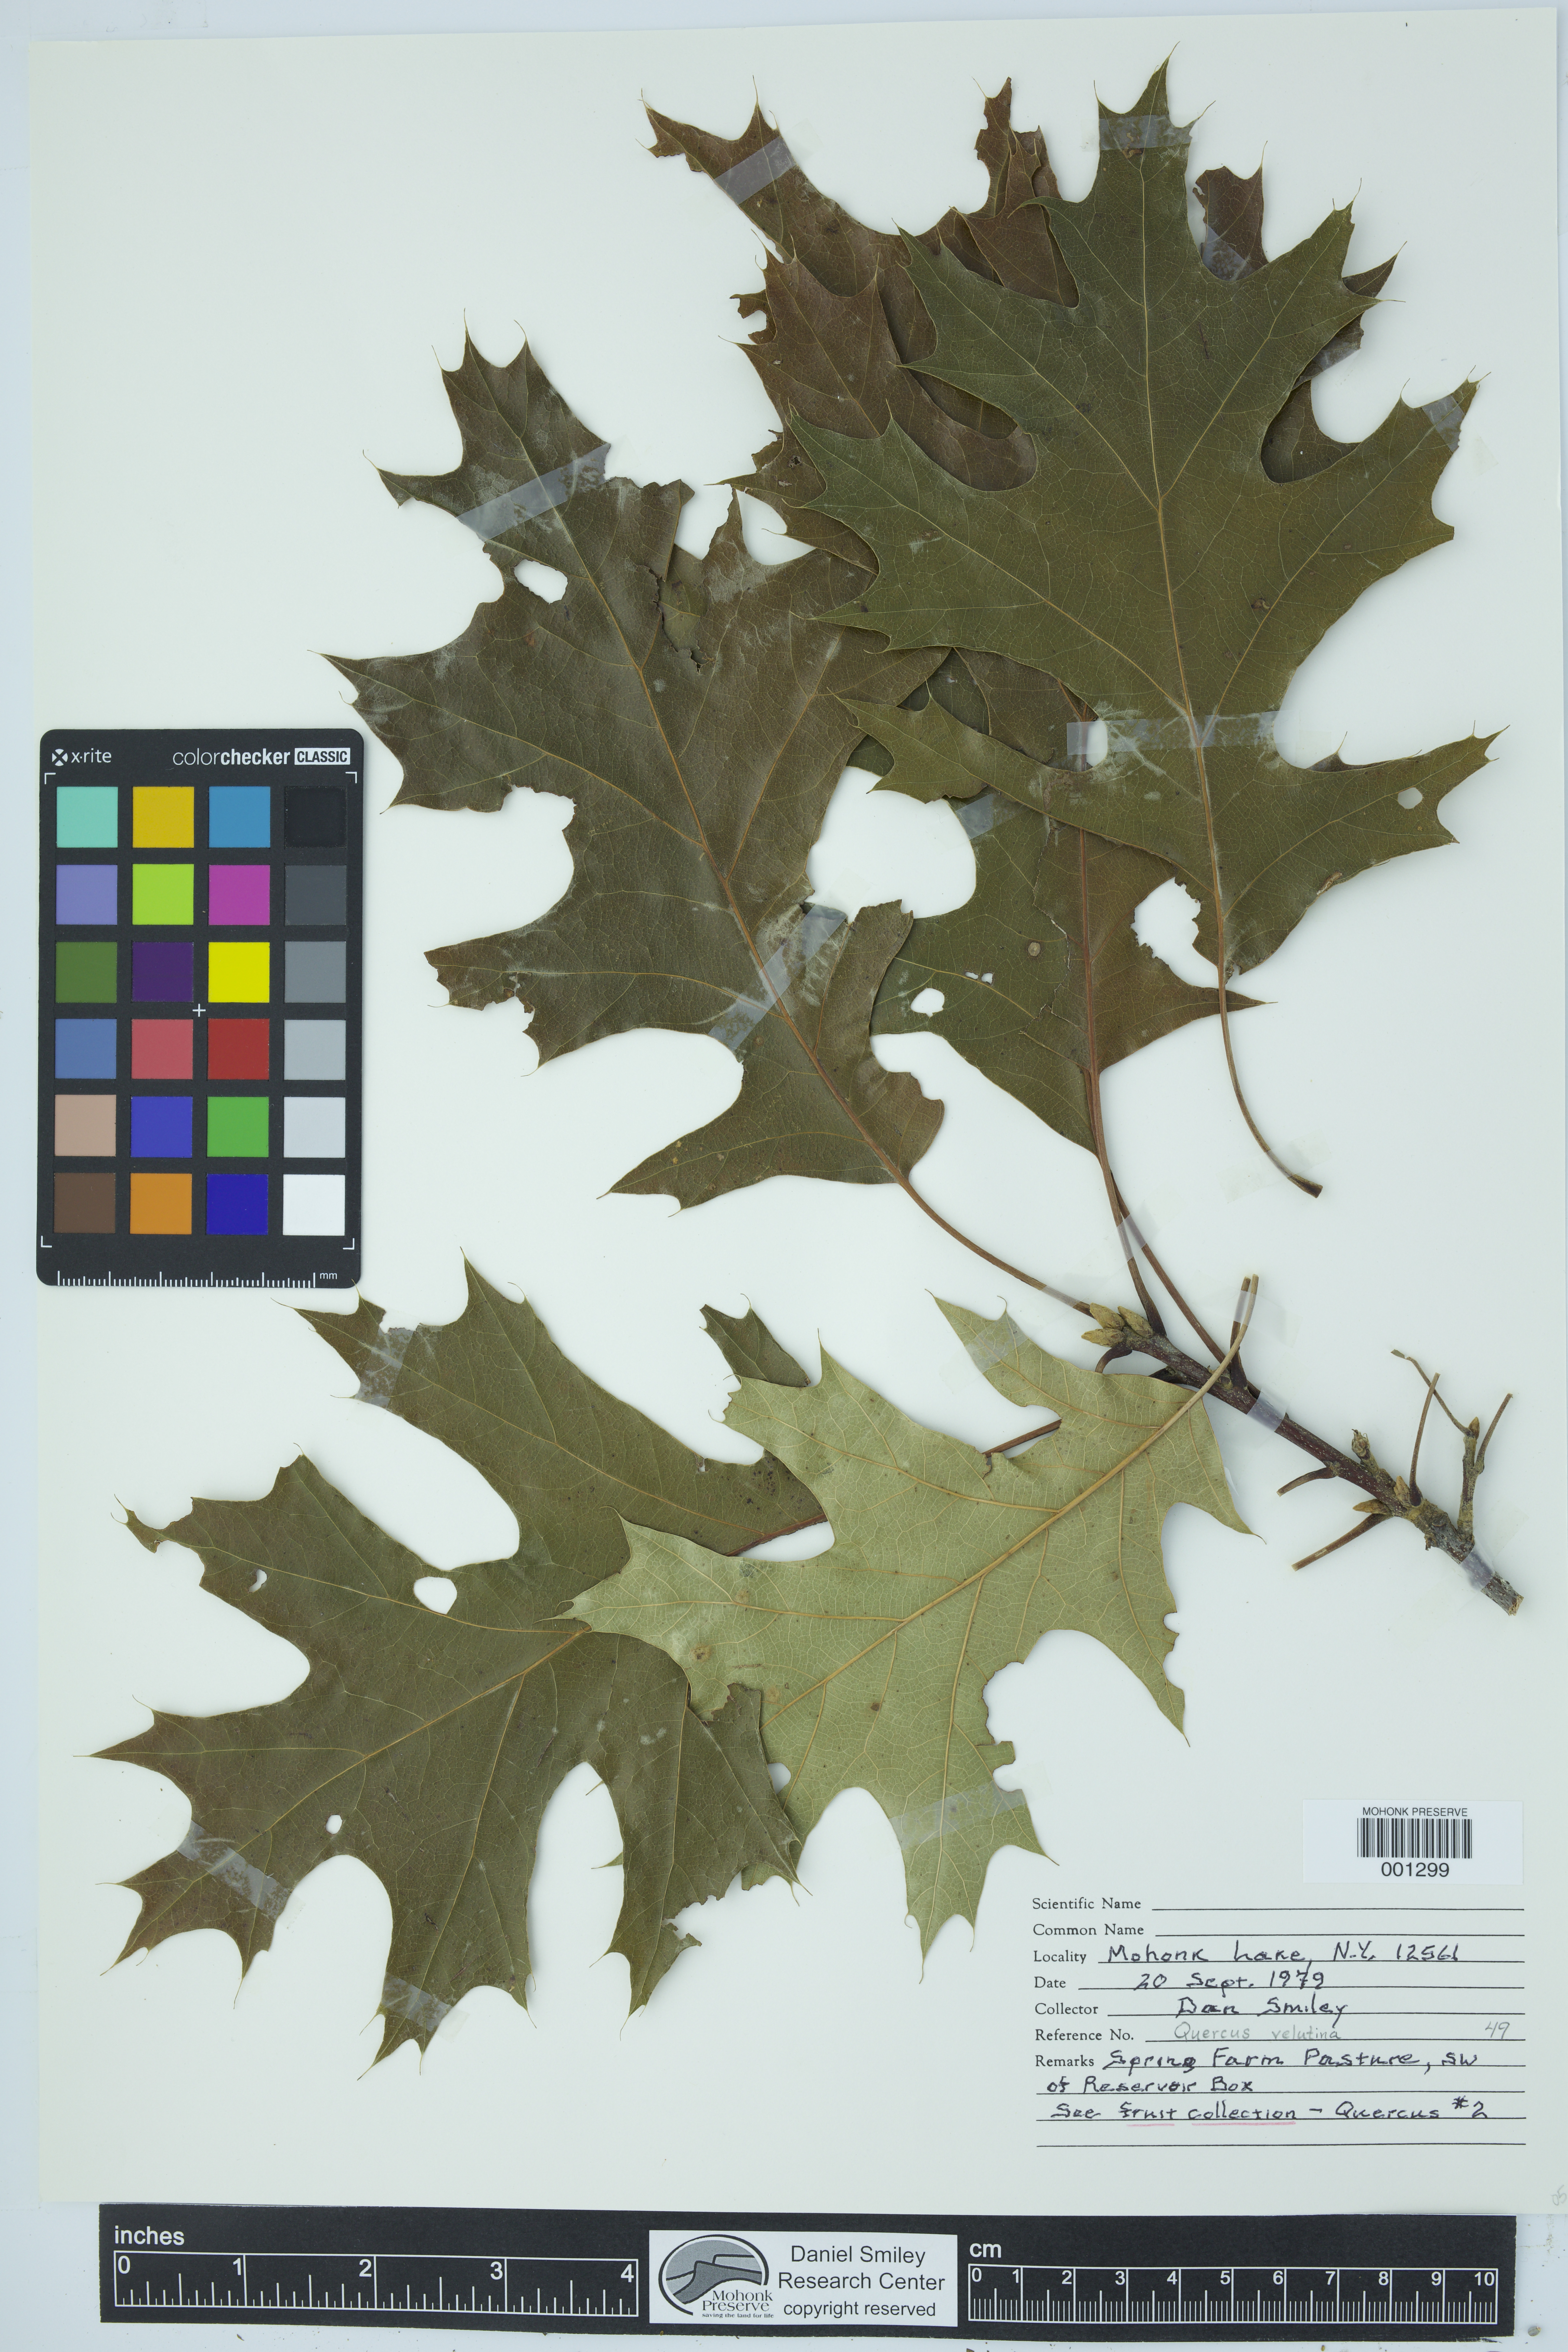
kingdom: Plantae
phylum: Tracheophyta
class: Magnoliopsida
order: Fagales
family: Fagaceae
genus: Quercus
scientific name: Quercus velutina
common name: Black oak
